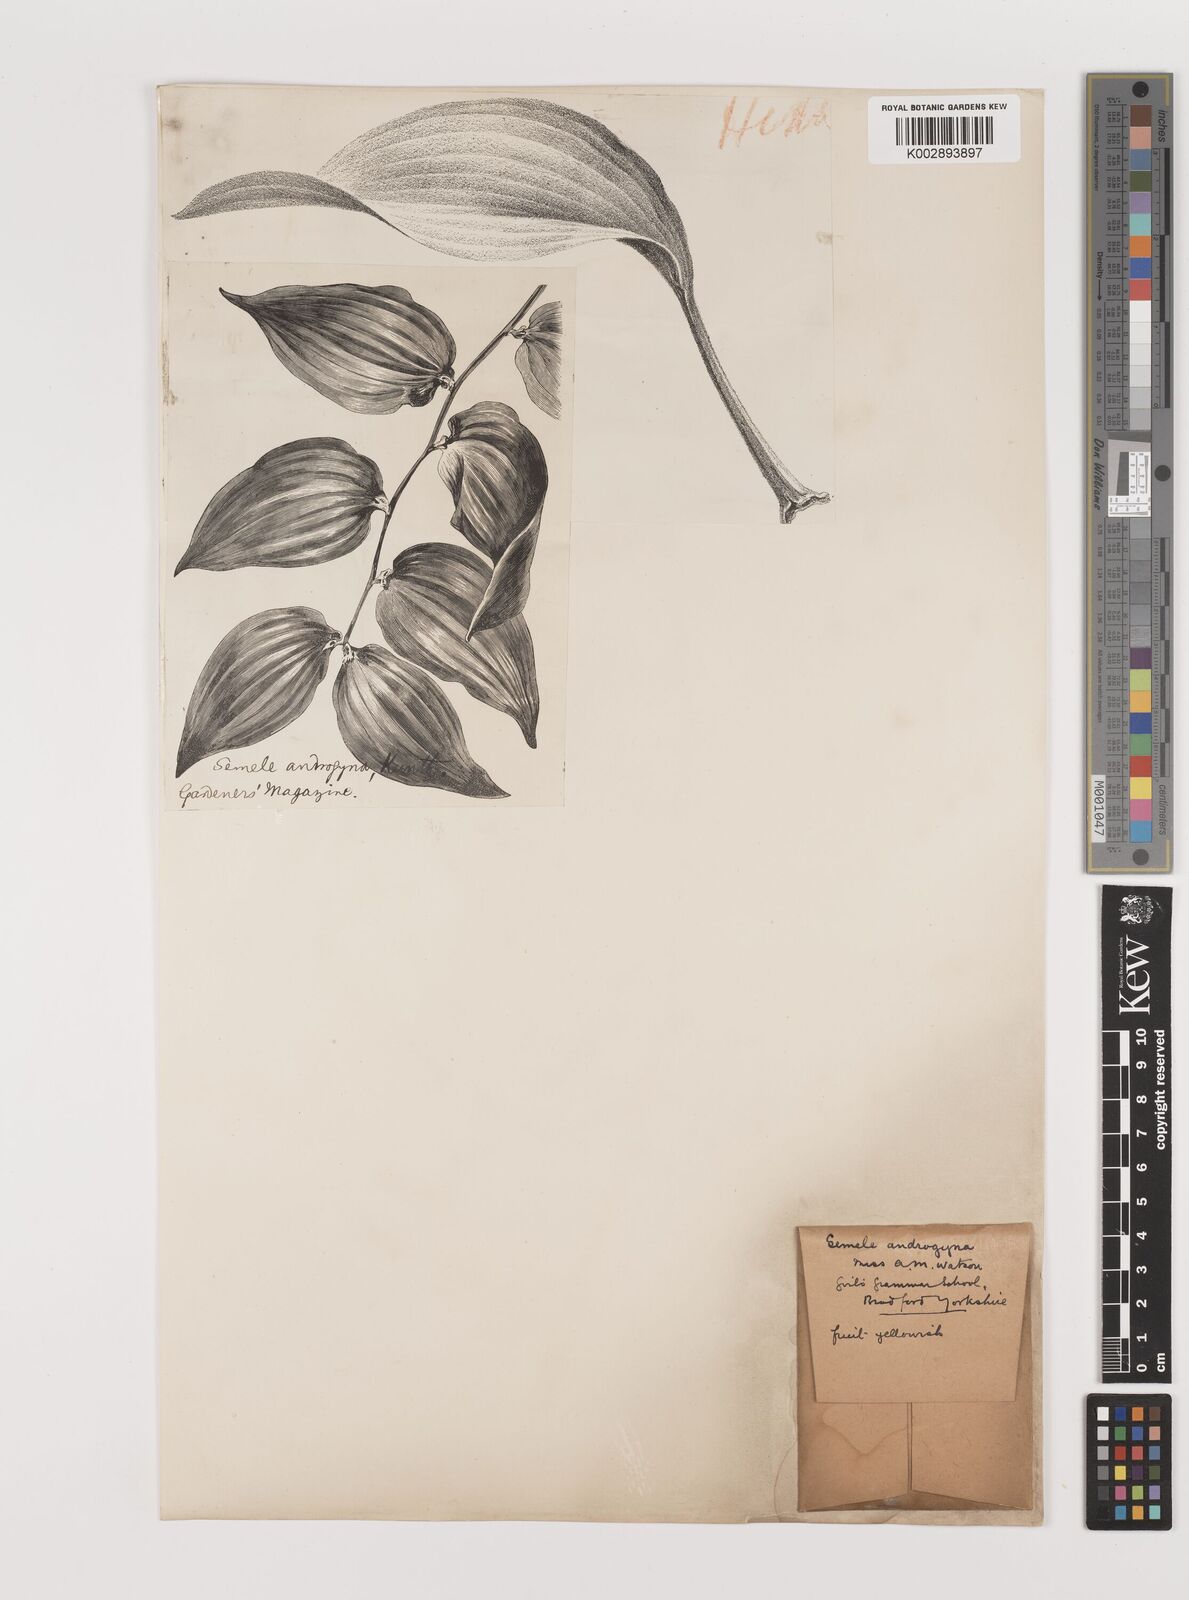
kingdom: Plantae
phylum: Tracheophyta
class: Liliopsida
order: Asparagales
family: Asparagaceae
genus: Semele
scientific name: Semele androgyna
